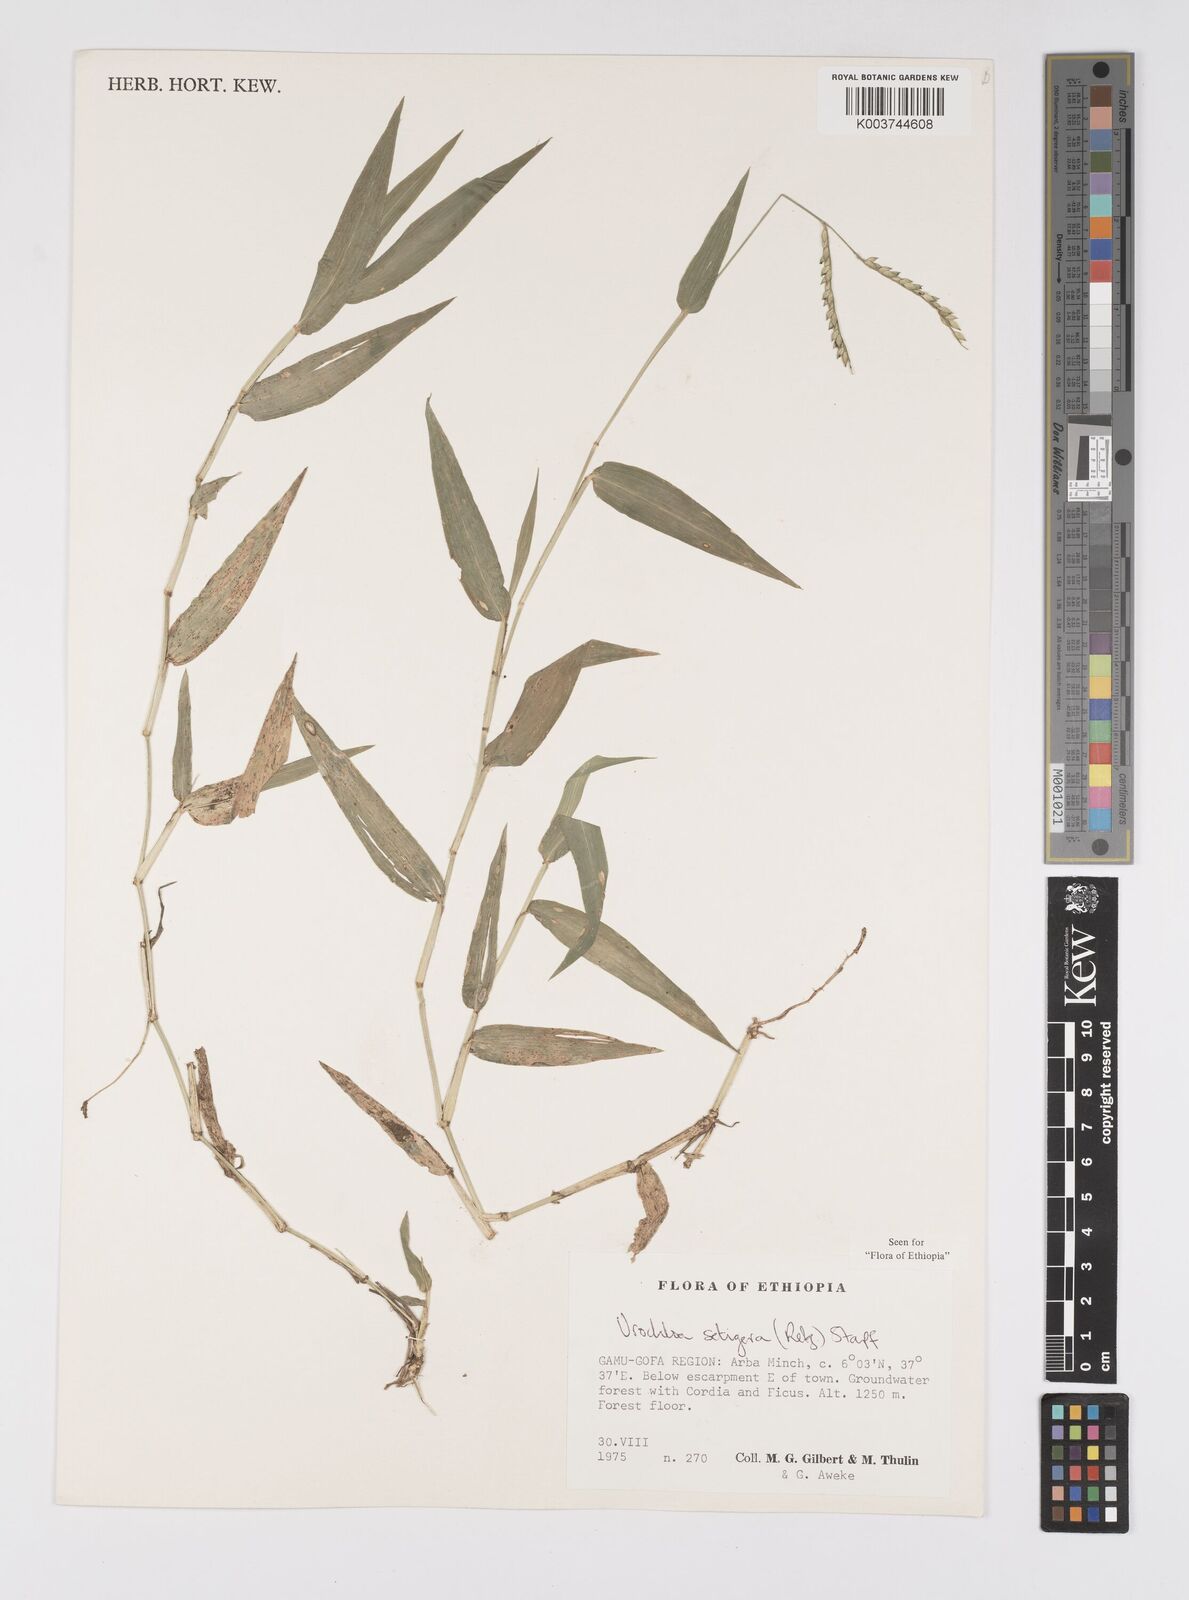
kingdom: Plantae
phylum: Tracheophyta
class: Liliopsida
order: Poales
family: Poaceae
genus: Urochloa
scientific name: Urochloa trichopodioides
